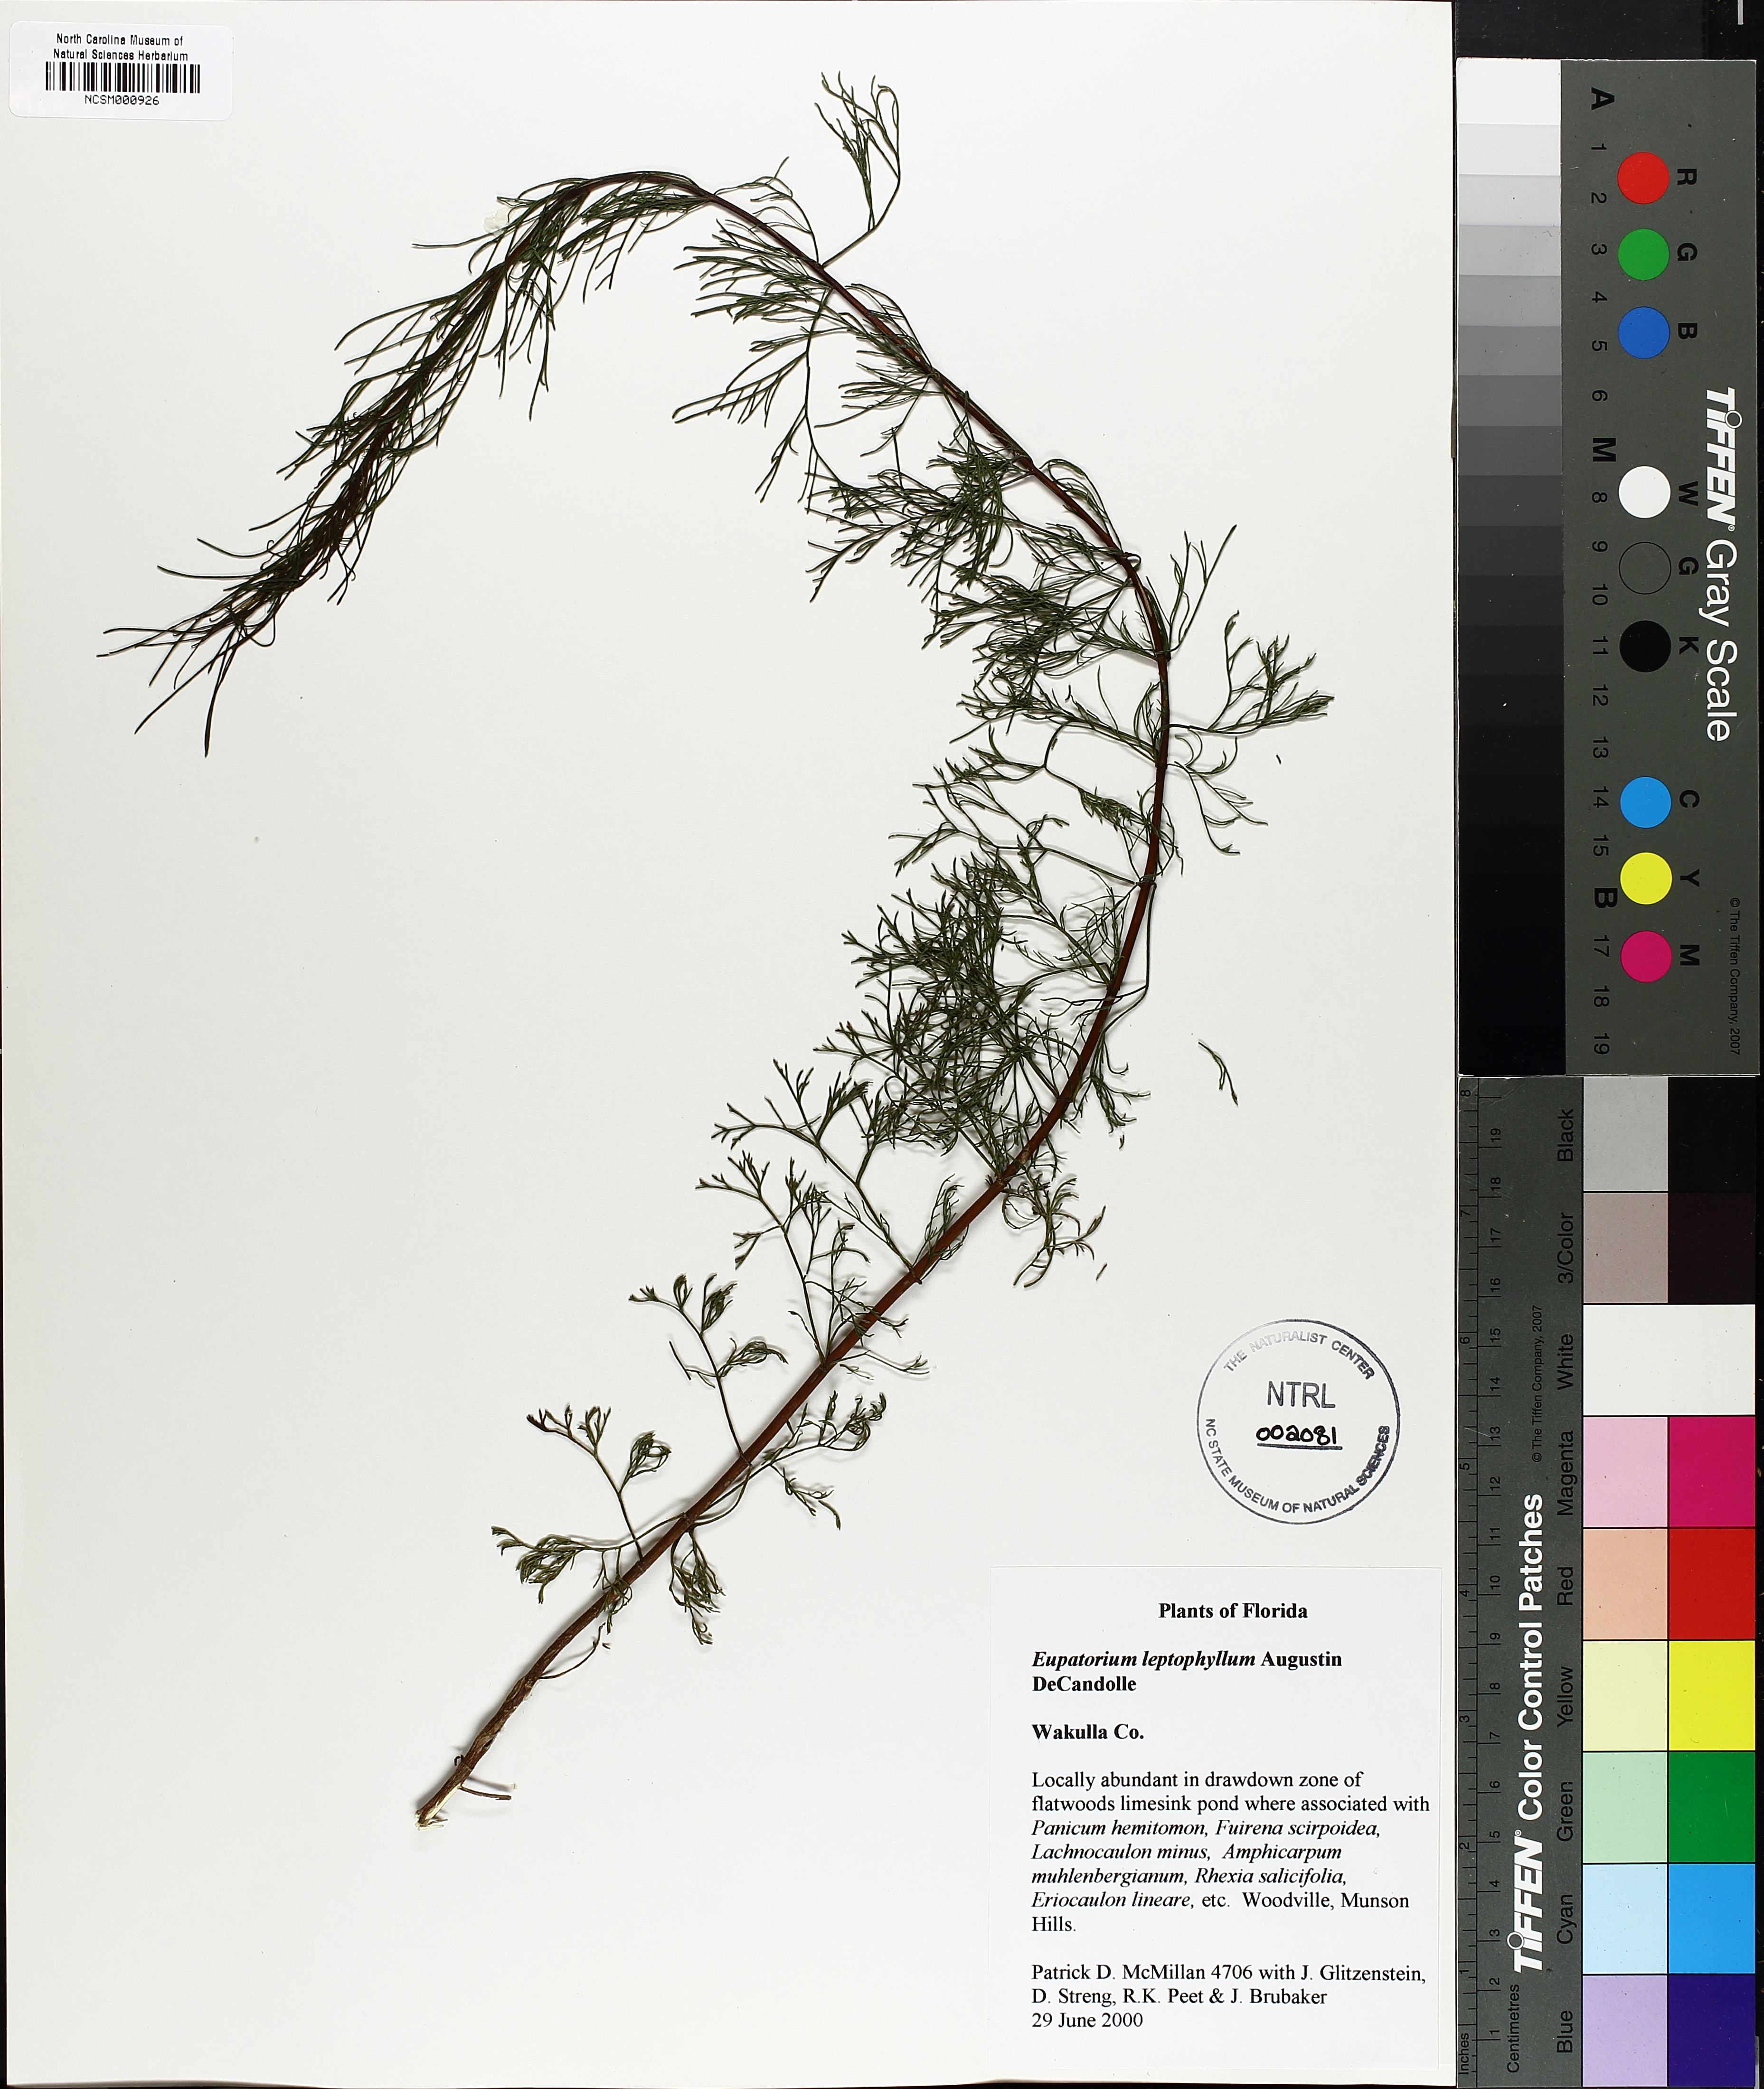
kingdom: Plantae
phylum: Tracheophyta
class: Magnoliopsida
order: Asterales
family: Asteraceae
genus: Eupatorium
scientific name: Eupatorium leptophyllum
